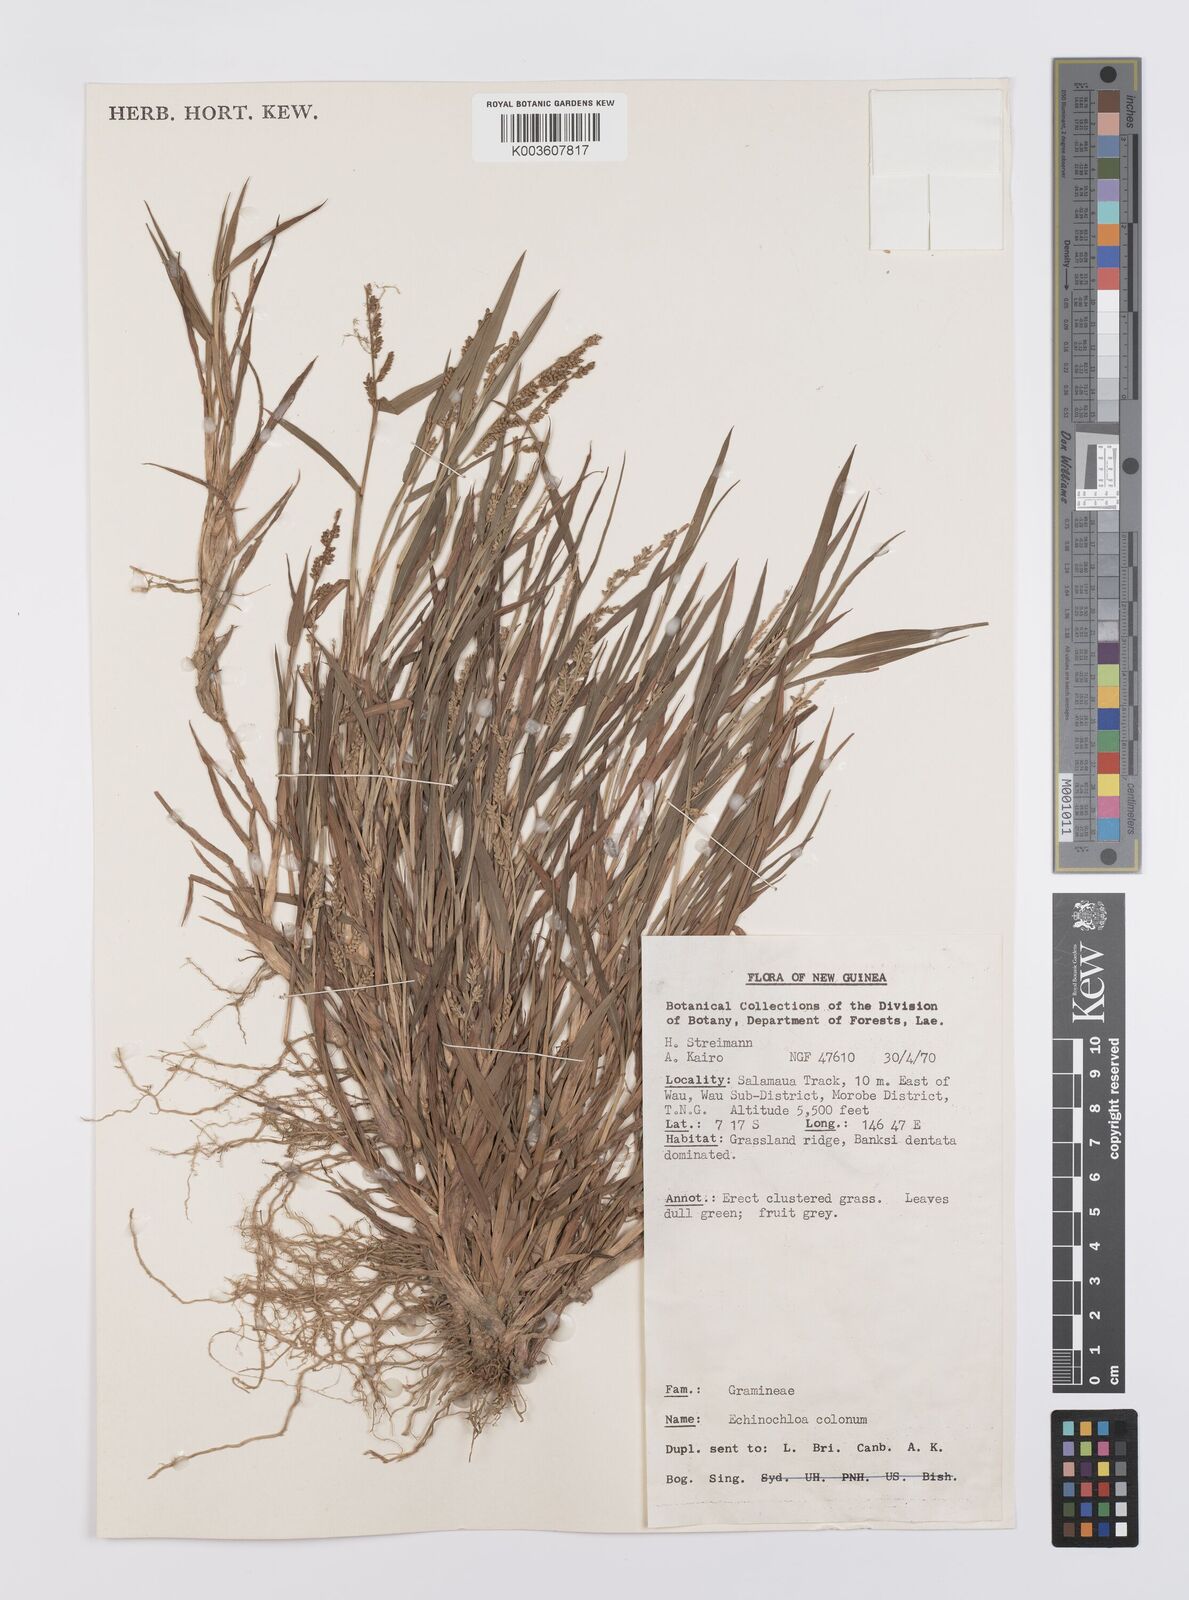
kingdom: Plantae
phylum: Tracheophyta
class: Liliopsida
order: Poales
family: Poaceae
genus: Echinochloa
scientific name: Echinochloa colonum
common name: Jungle rice
